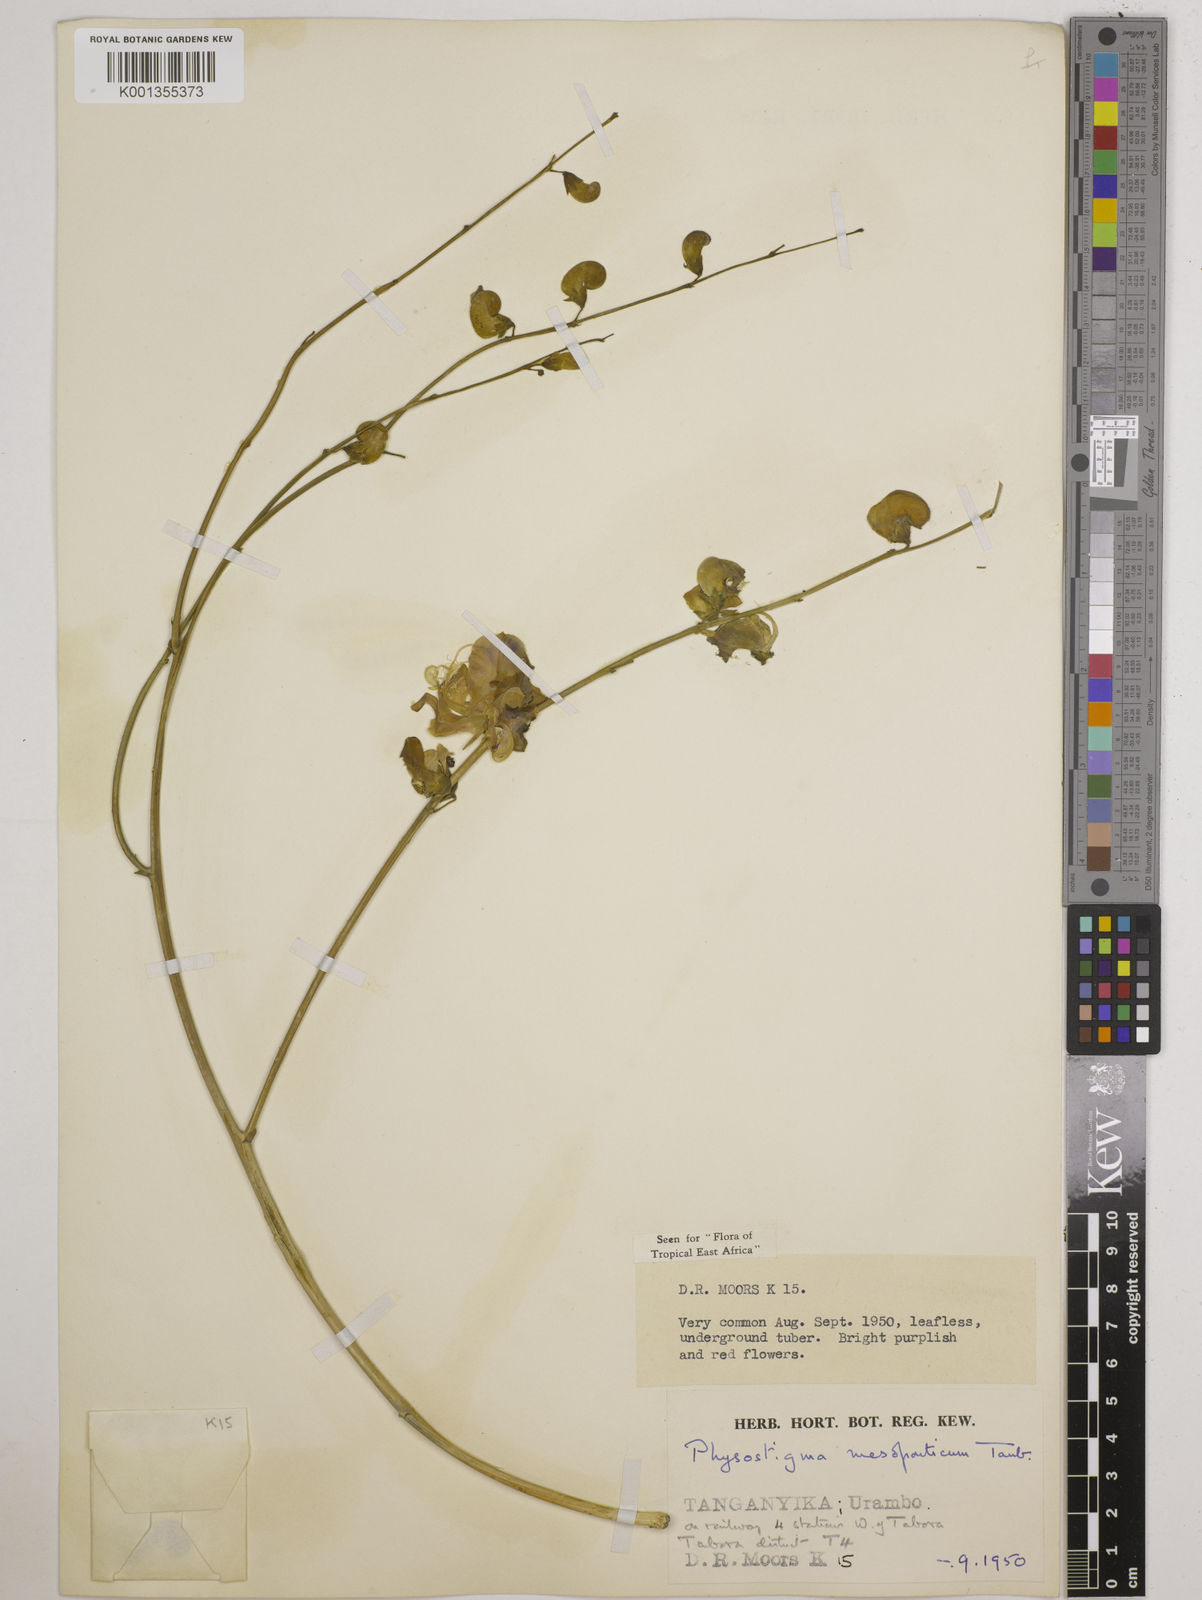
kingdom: Plantae
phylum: Tracheophyta
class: Magnoliopsida
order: Fabales
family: Fabaceae
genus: Physostigma
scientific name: Physostigma mesoponticum
